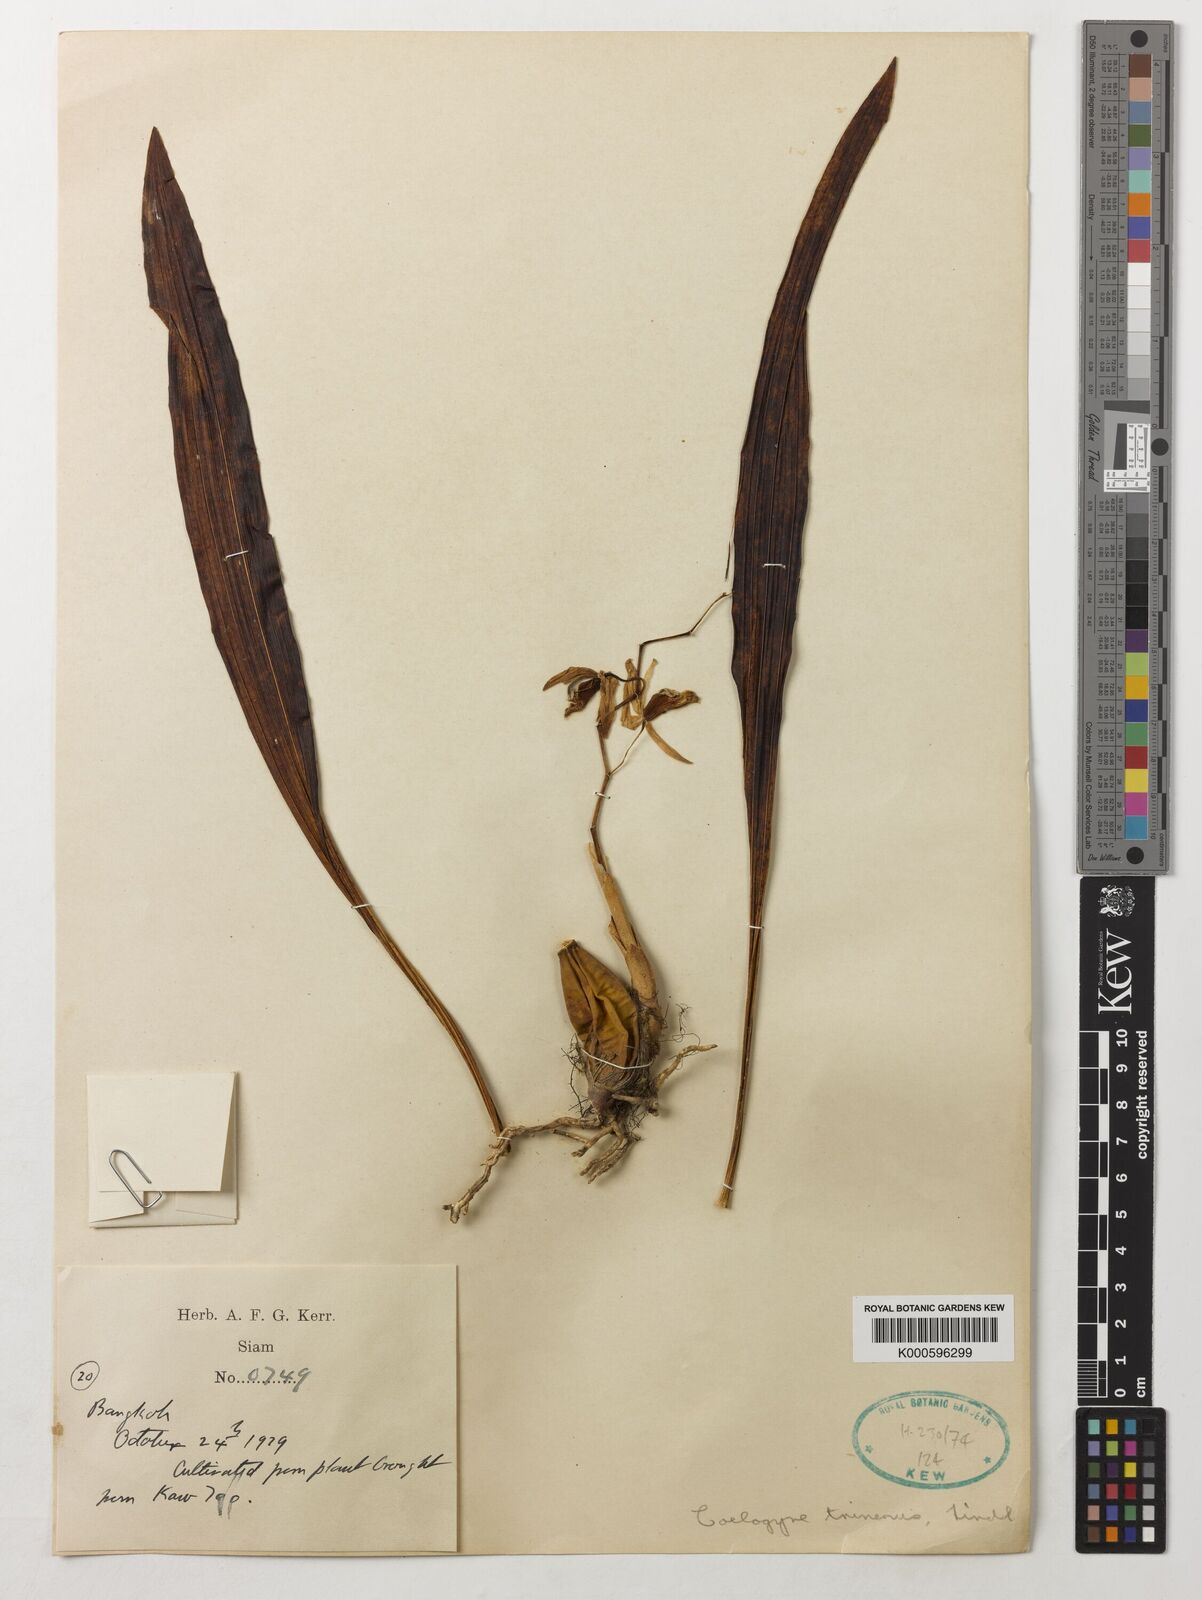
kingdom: Plantae
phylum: Tracheophyta
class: Liliopsida
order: Asparagales
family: Orchidaceae
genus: Coelogyne
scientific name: Coelogyne trinervis
